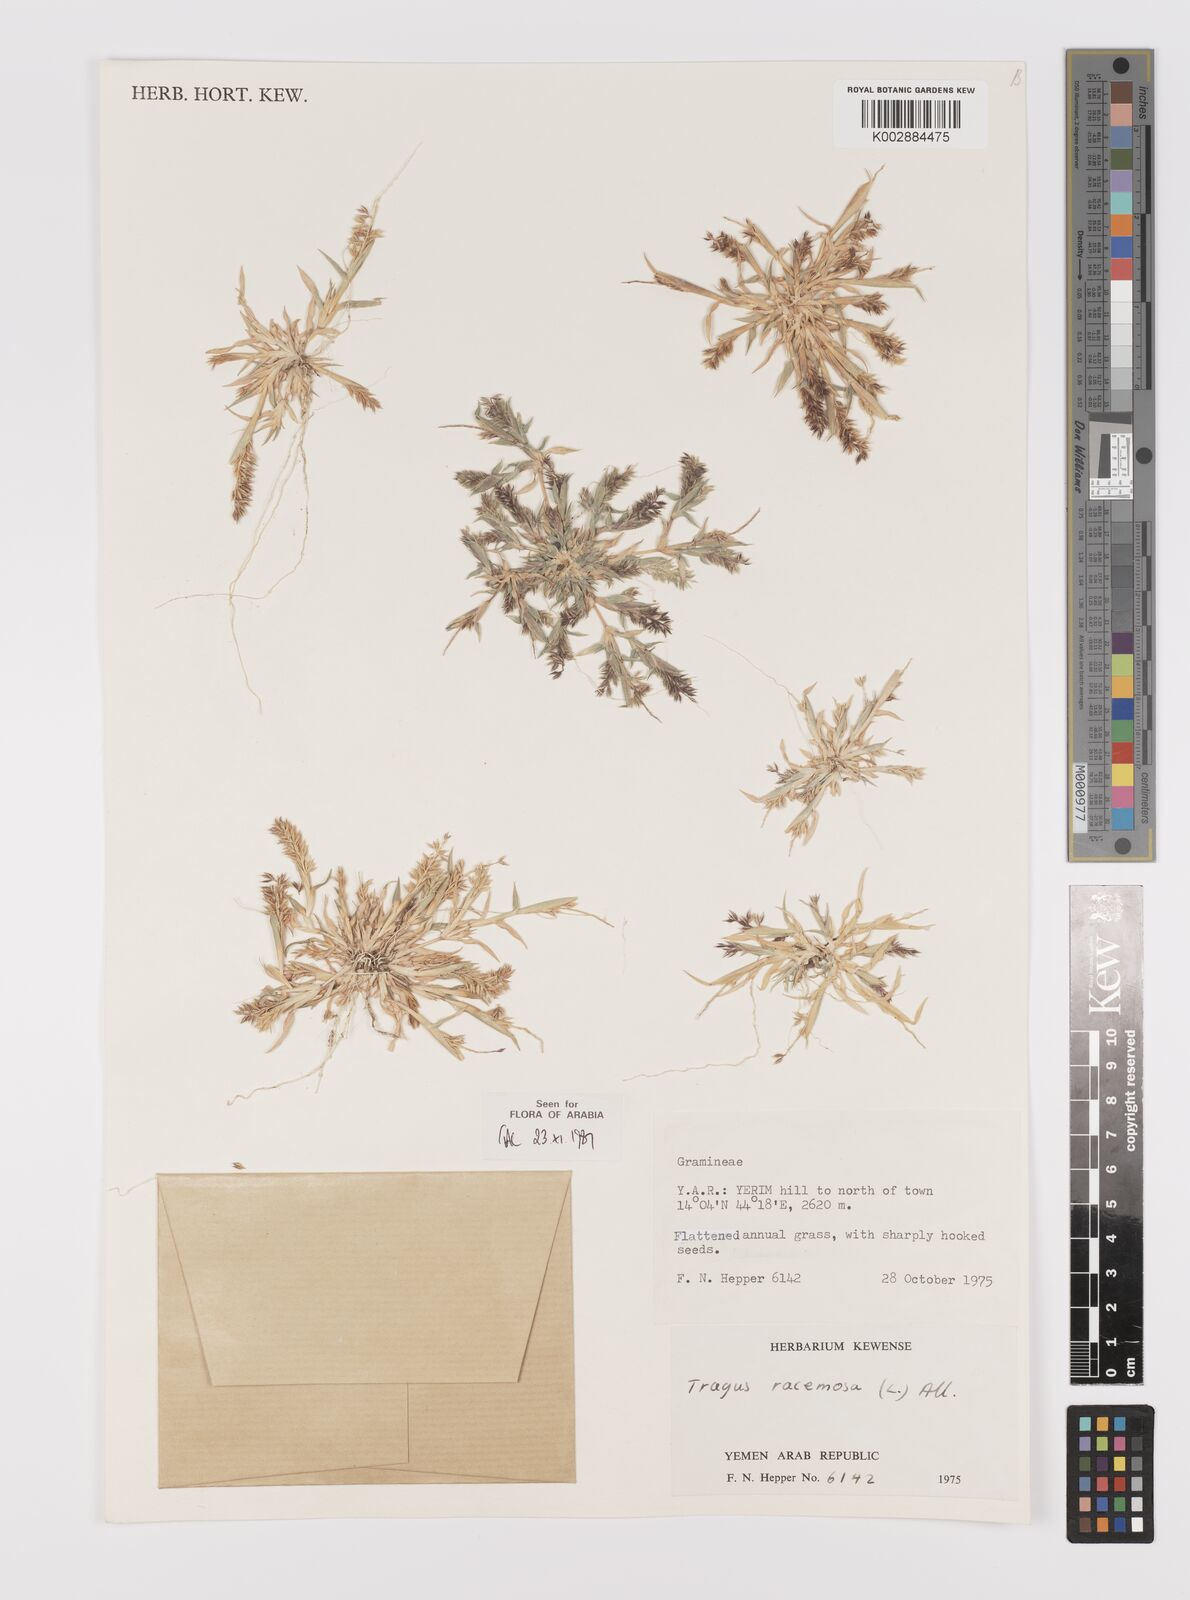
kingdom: Plantae
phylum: Tracheophyta
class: Liliopsida
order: Poales
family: Poaceae
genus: Tragus
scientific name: Tragus racemosus
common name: European bur-grass
